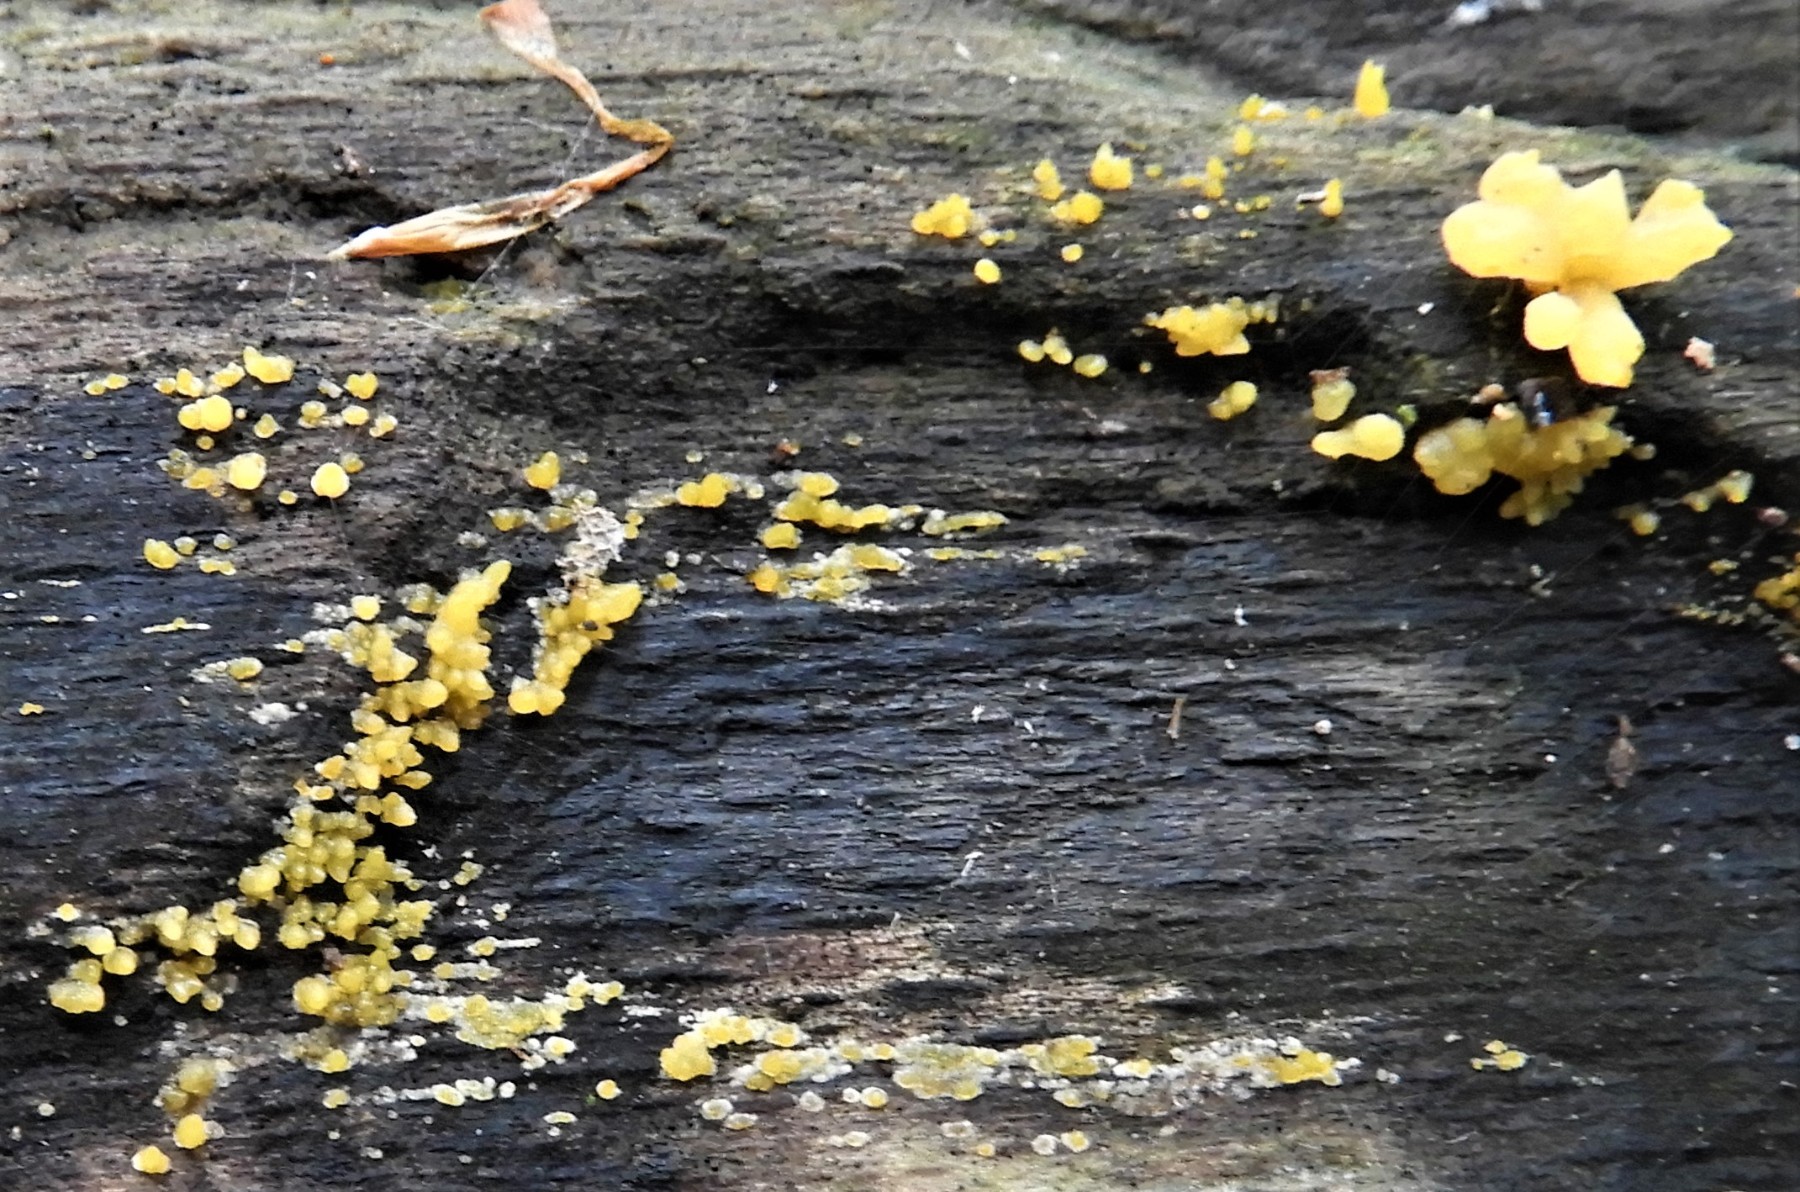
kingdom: Fungi
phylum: Basidiomycota
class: Dacrymycetes
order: Dacrymycetales
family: Dacrymycetaceae
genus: Calocera
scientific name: Calocera cornea
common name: liden guldgaffel
